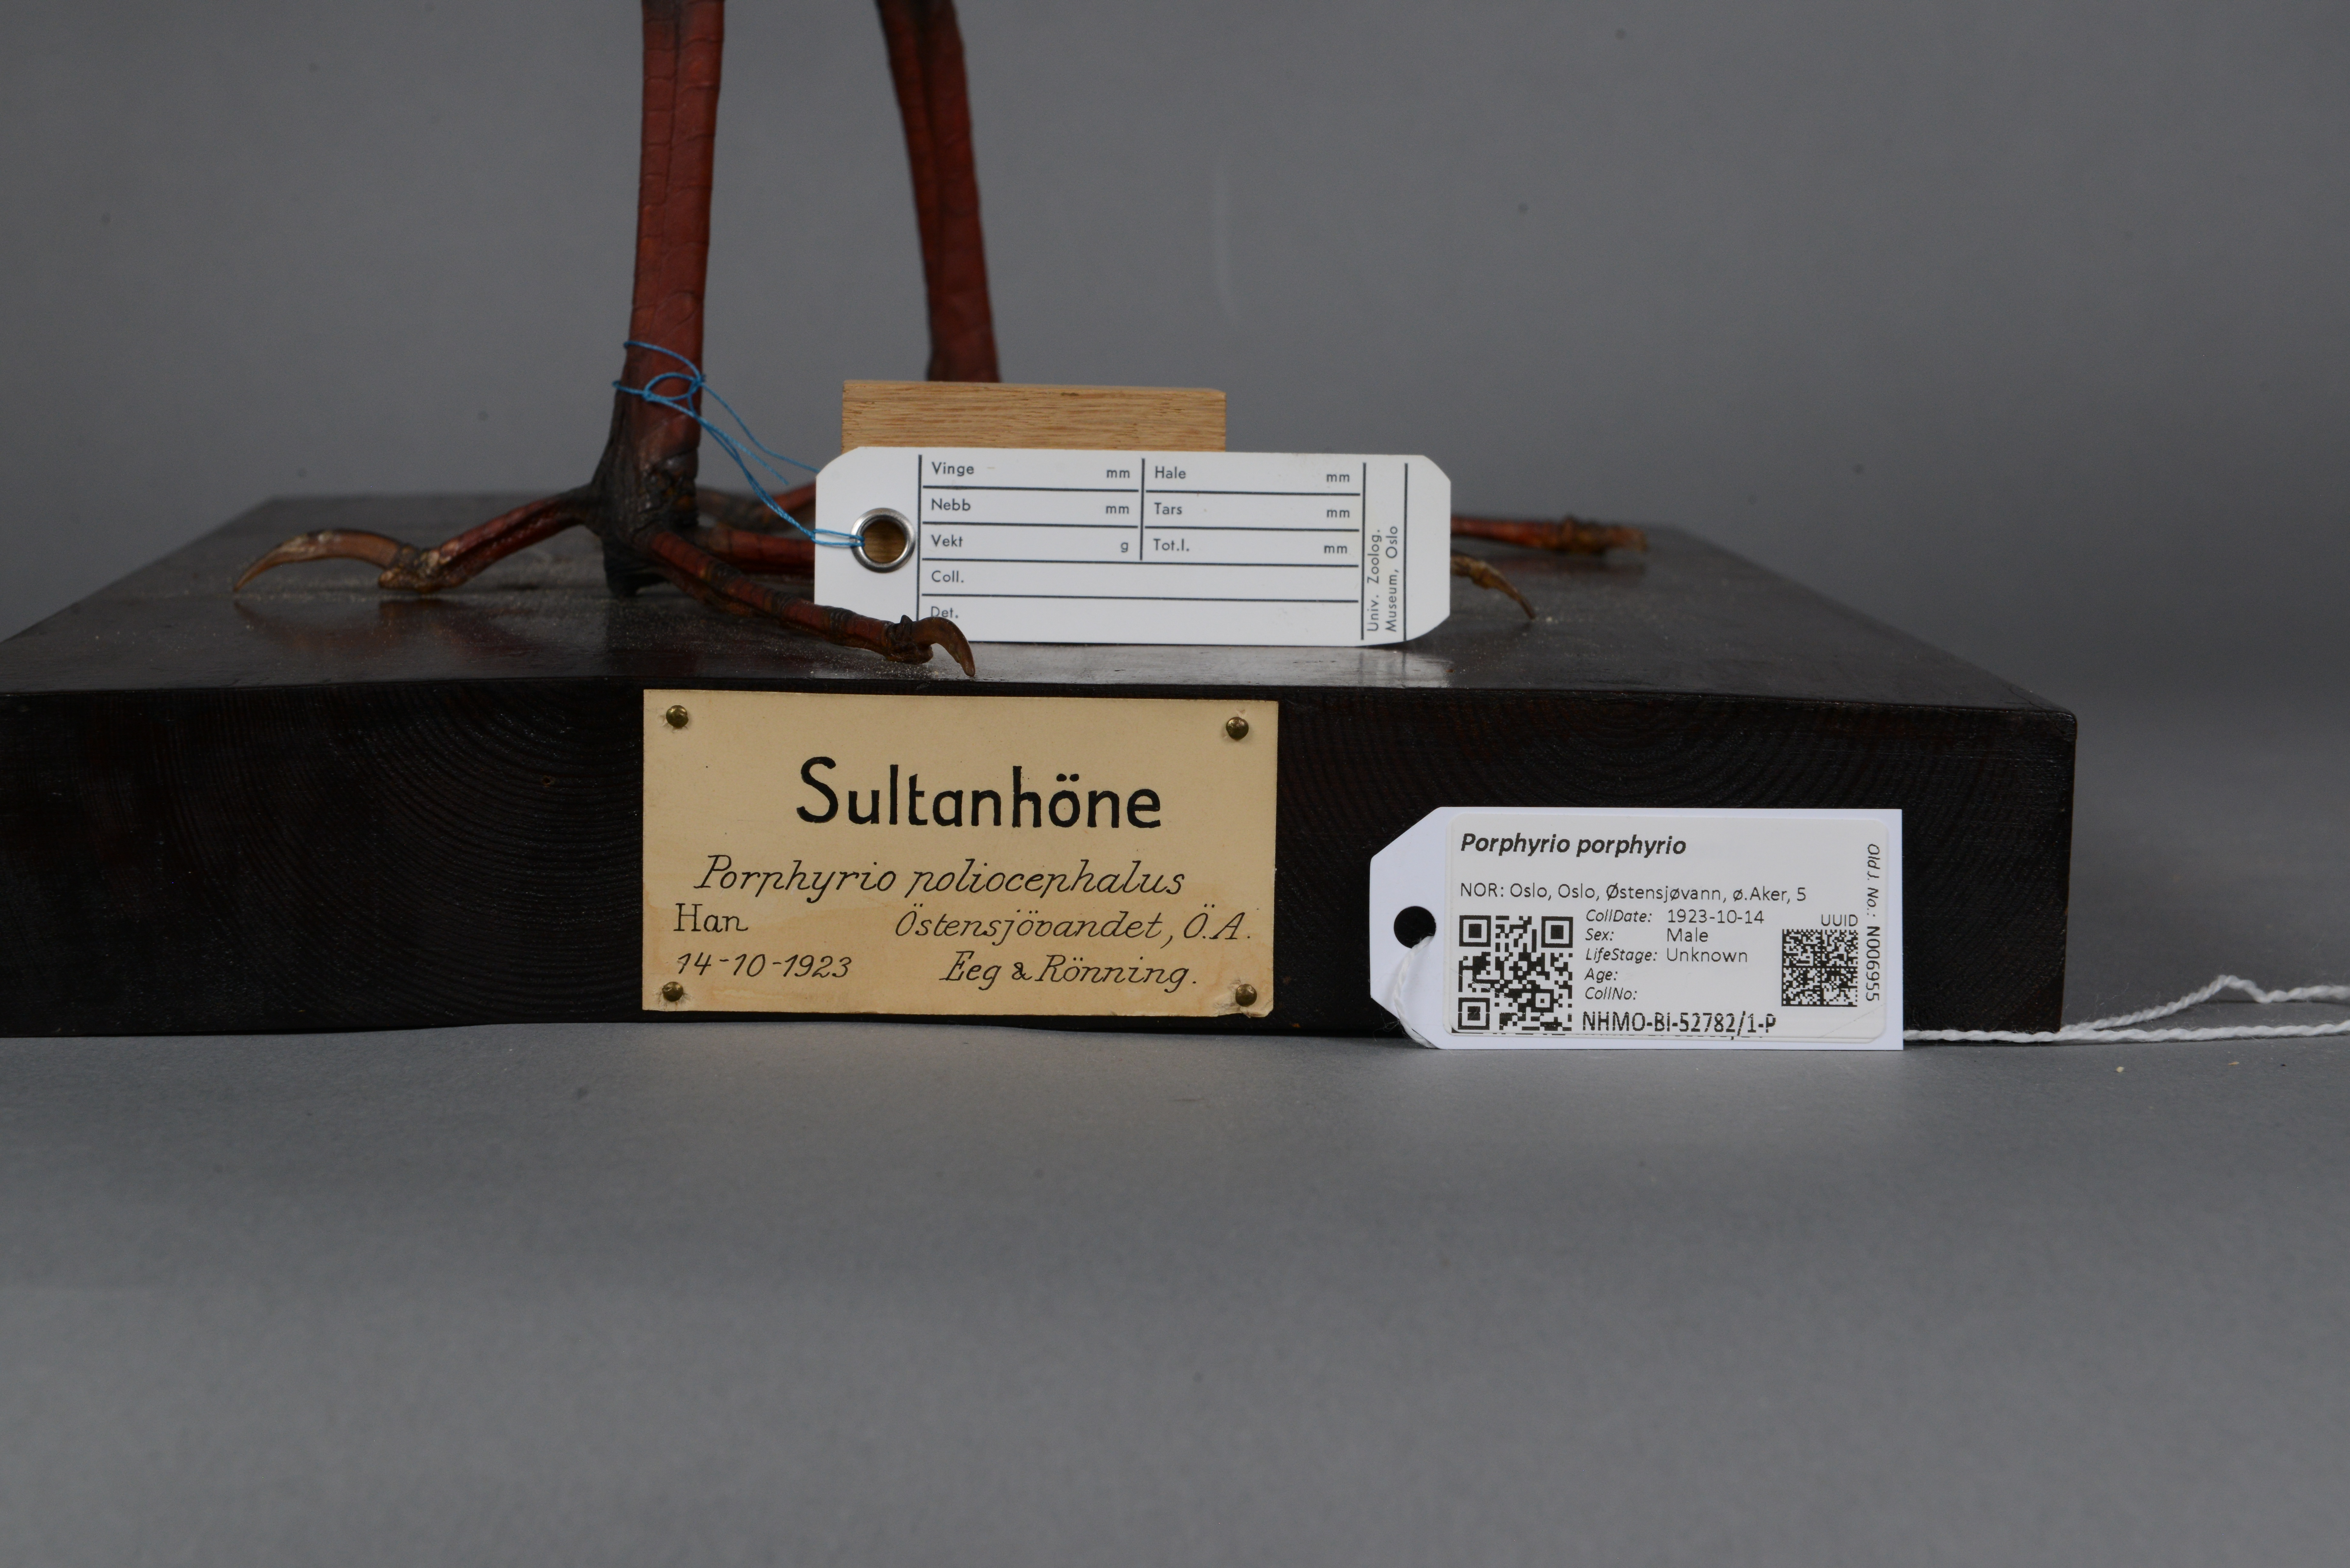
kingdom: Animalia
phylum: Chordata
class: Aves
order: Gruiformes
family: Rallidae
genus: Porphyrio
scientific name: Porphyrio porphyrio
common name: Purple swamphen
